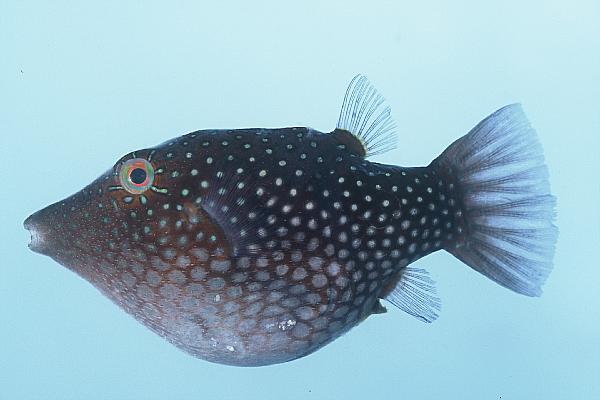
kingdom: Animalia
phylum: Chordata
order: Tetraodontiformes
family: Tetraodontidae
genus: Canthigaster
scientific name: Canthigaster janthinoptera
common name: Honeycomb toby
